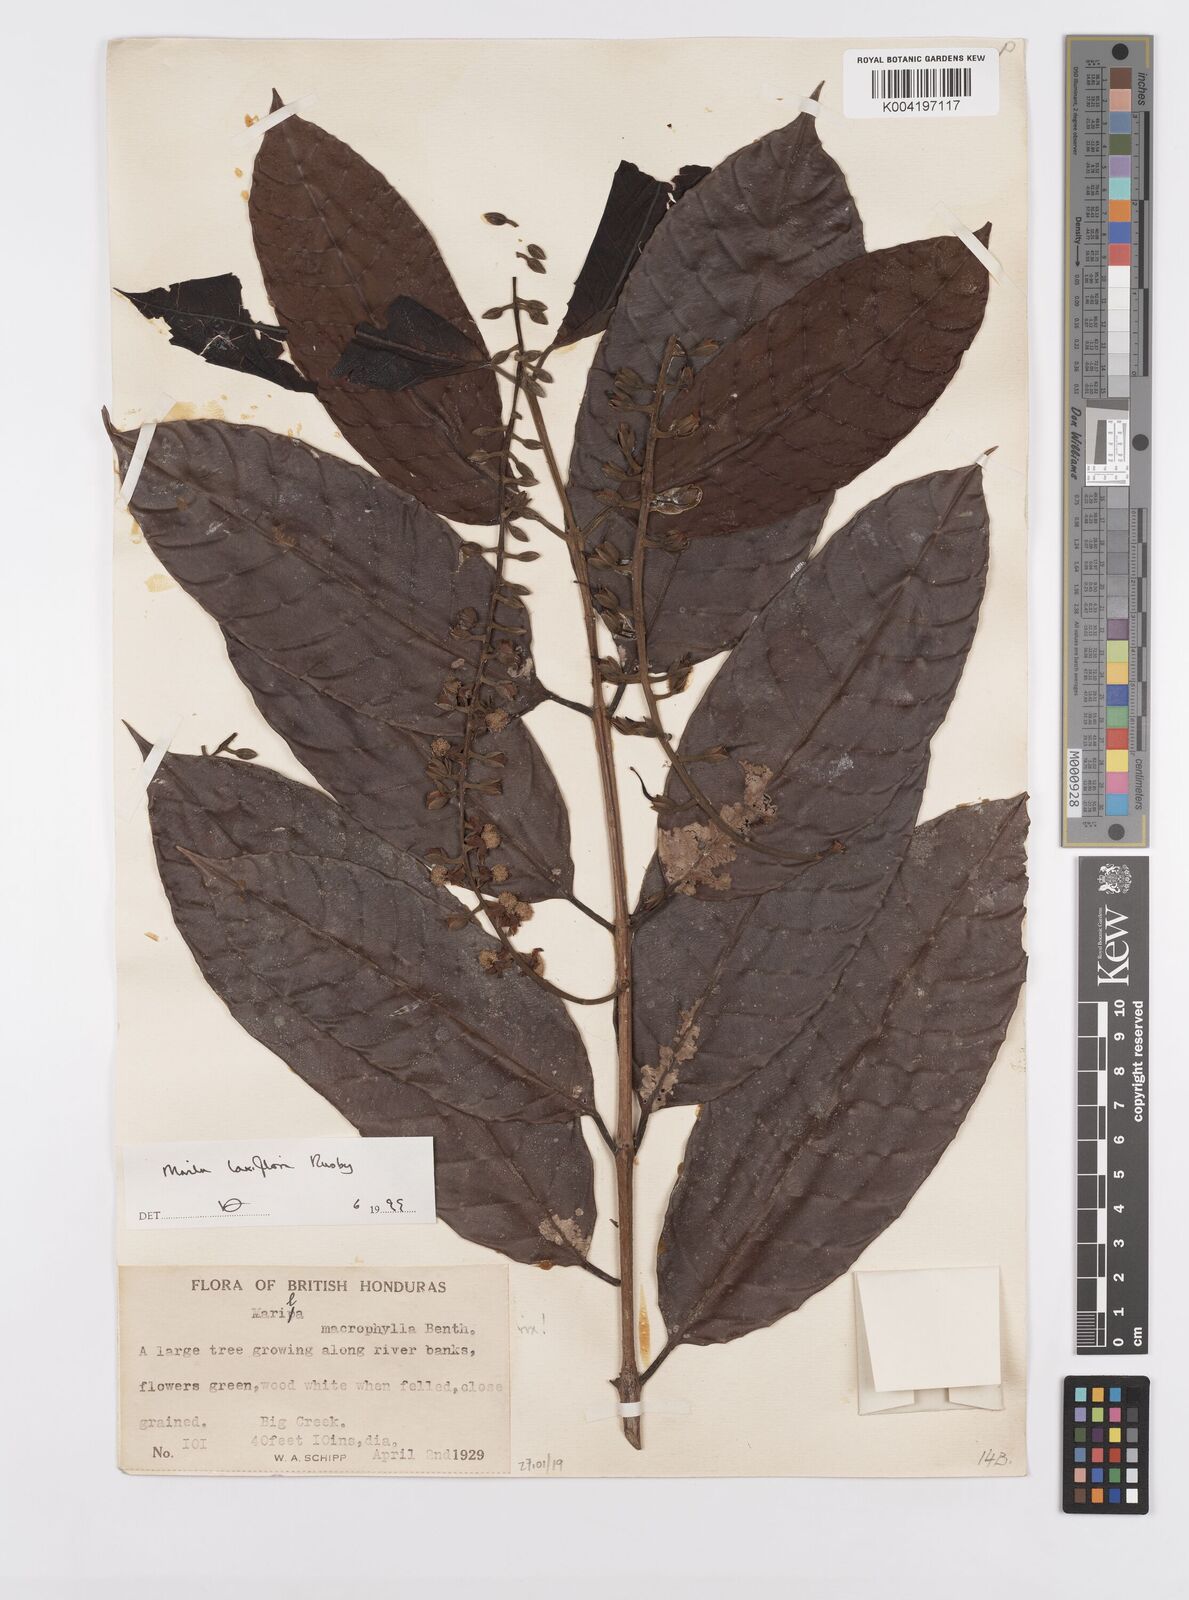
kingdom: Plantae
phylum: Tracheophyta
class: Magnoliopsida
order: Malpighiales
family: Calophyllaceae
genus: Marila
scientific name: Marila laxiflora
